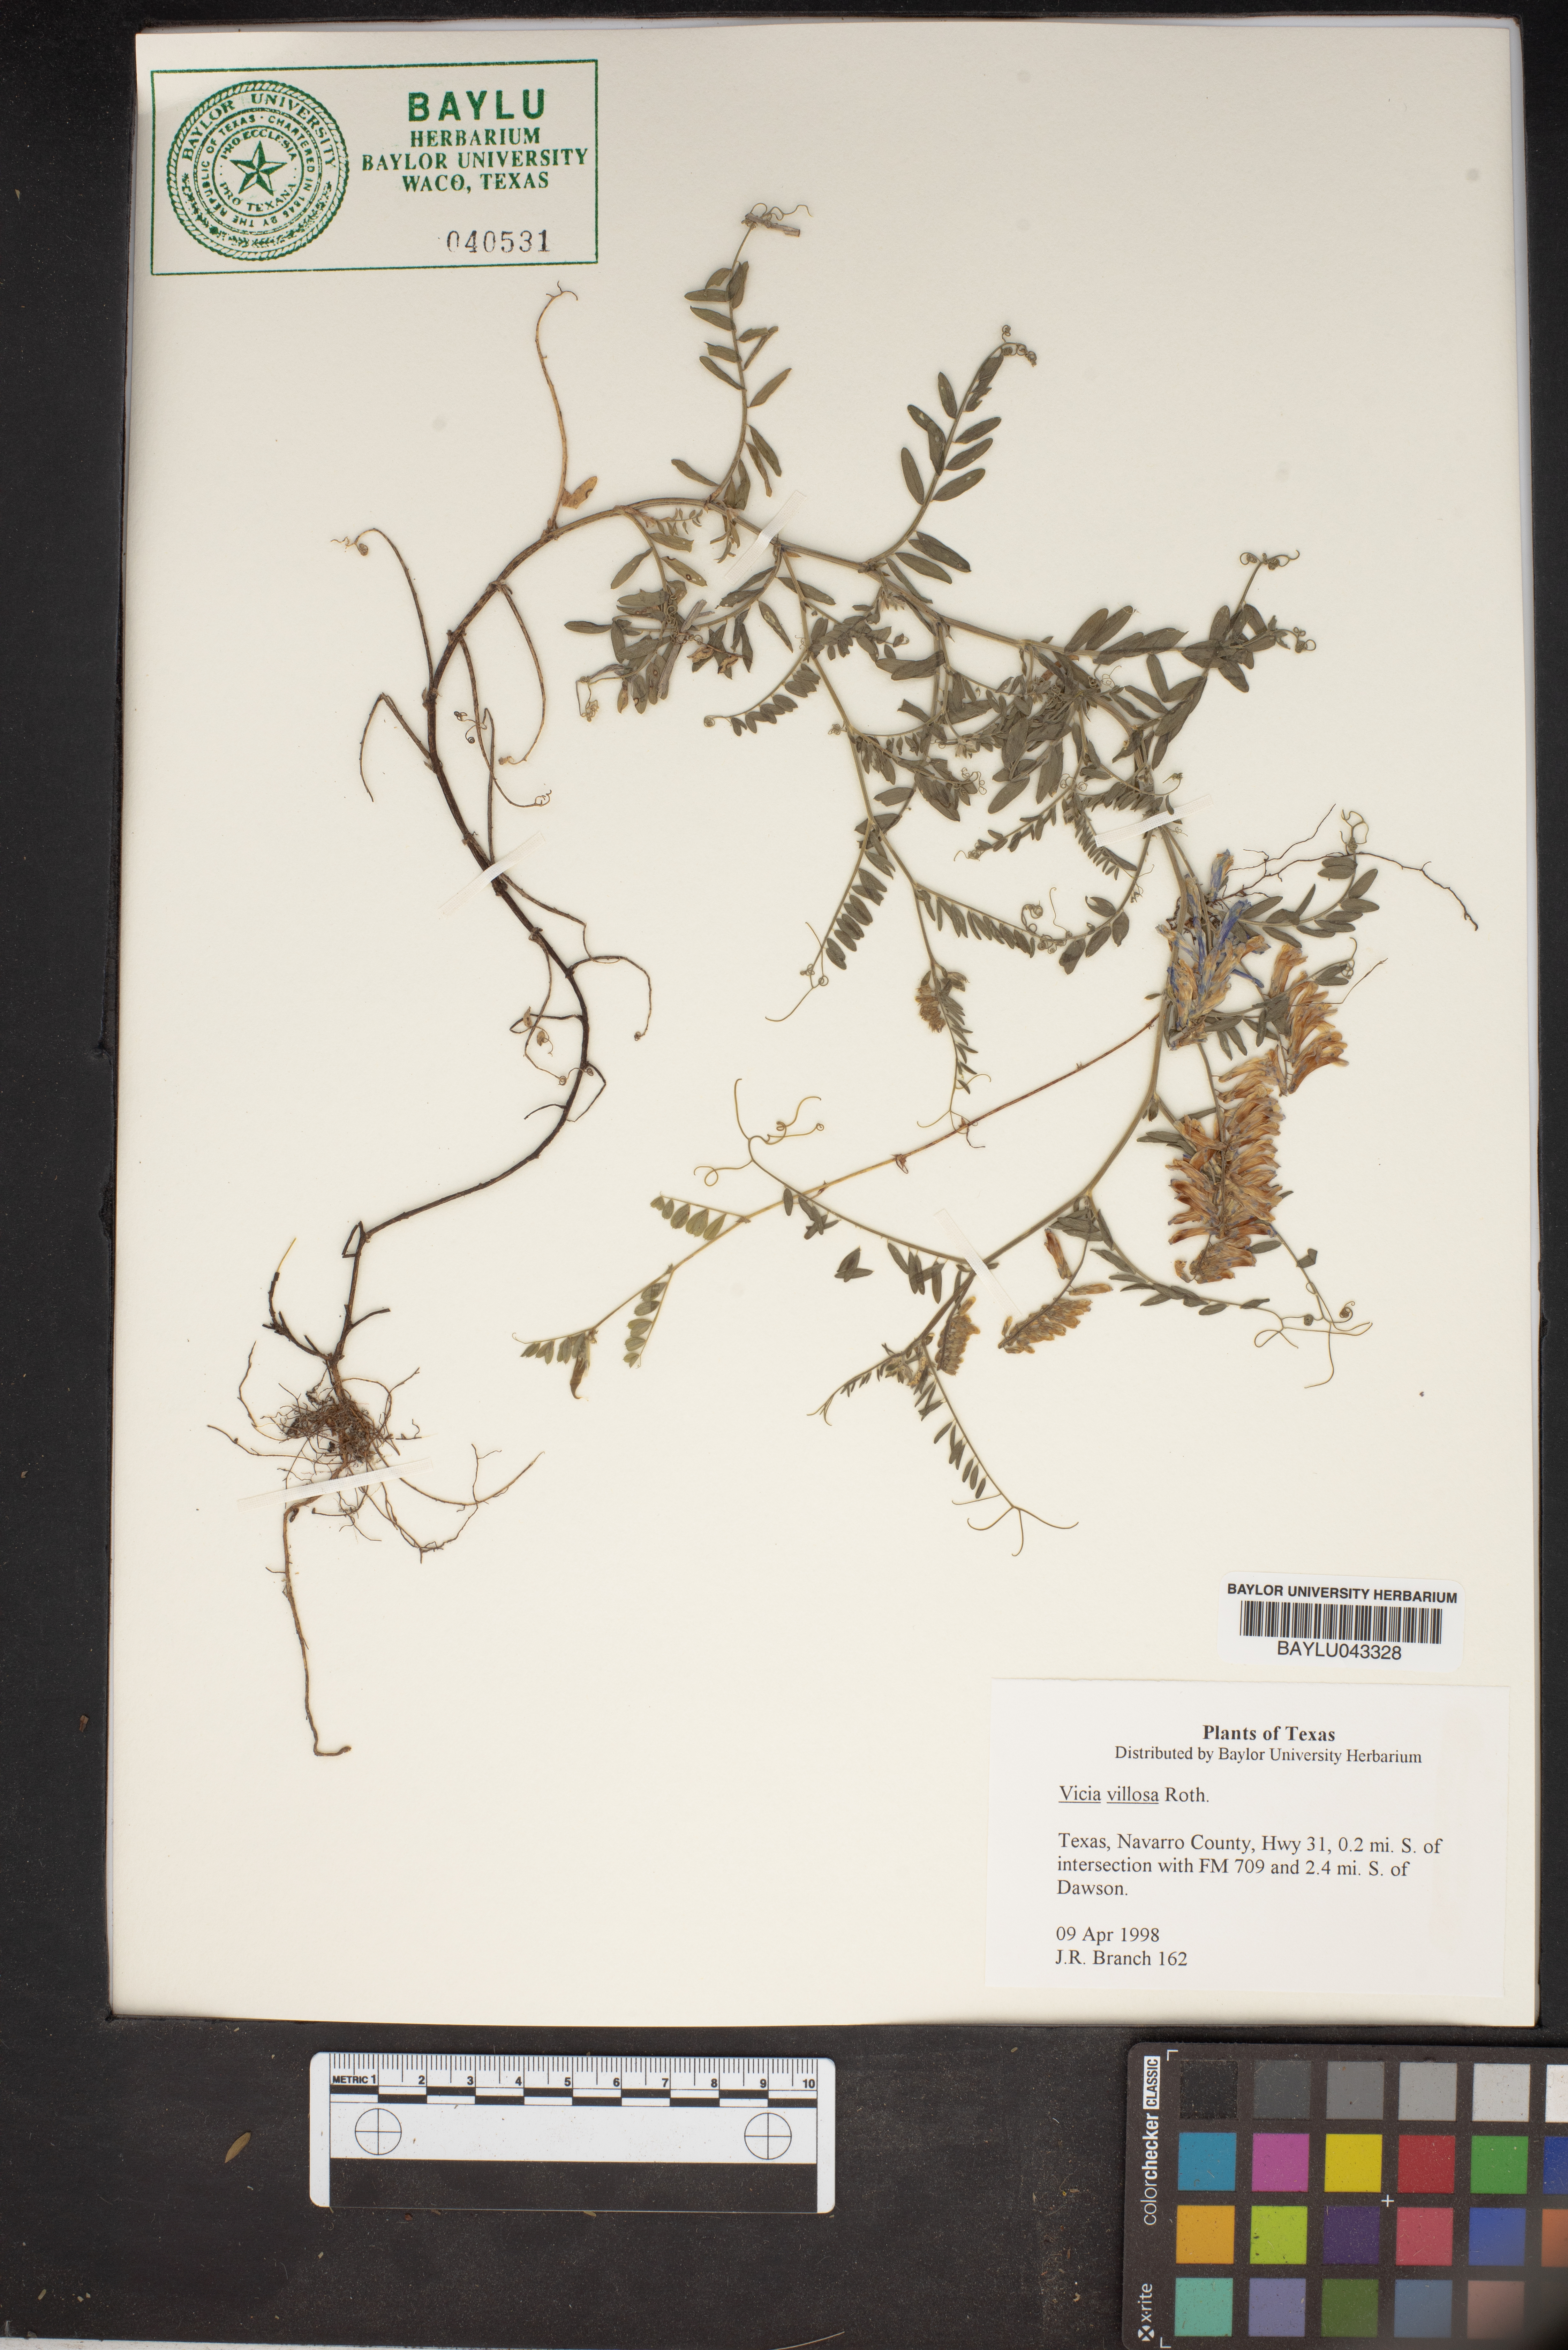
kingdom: Plantae
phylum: Tracheophyta
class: Magnoliopsida
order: Fabales
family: Fabaceae
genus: Vicia
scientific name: Vicia villosa
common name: Fodder vetch
